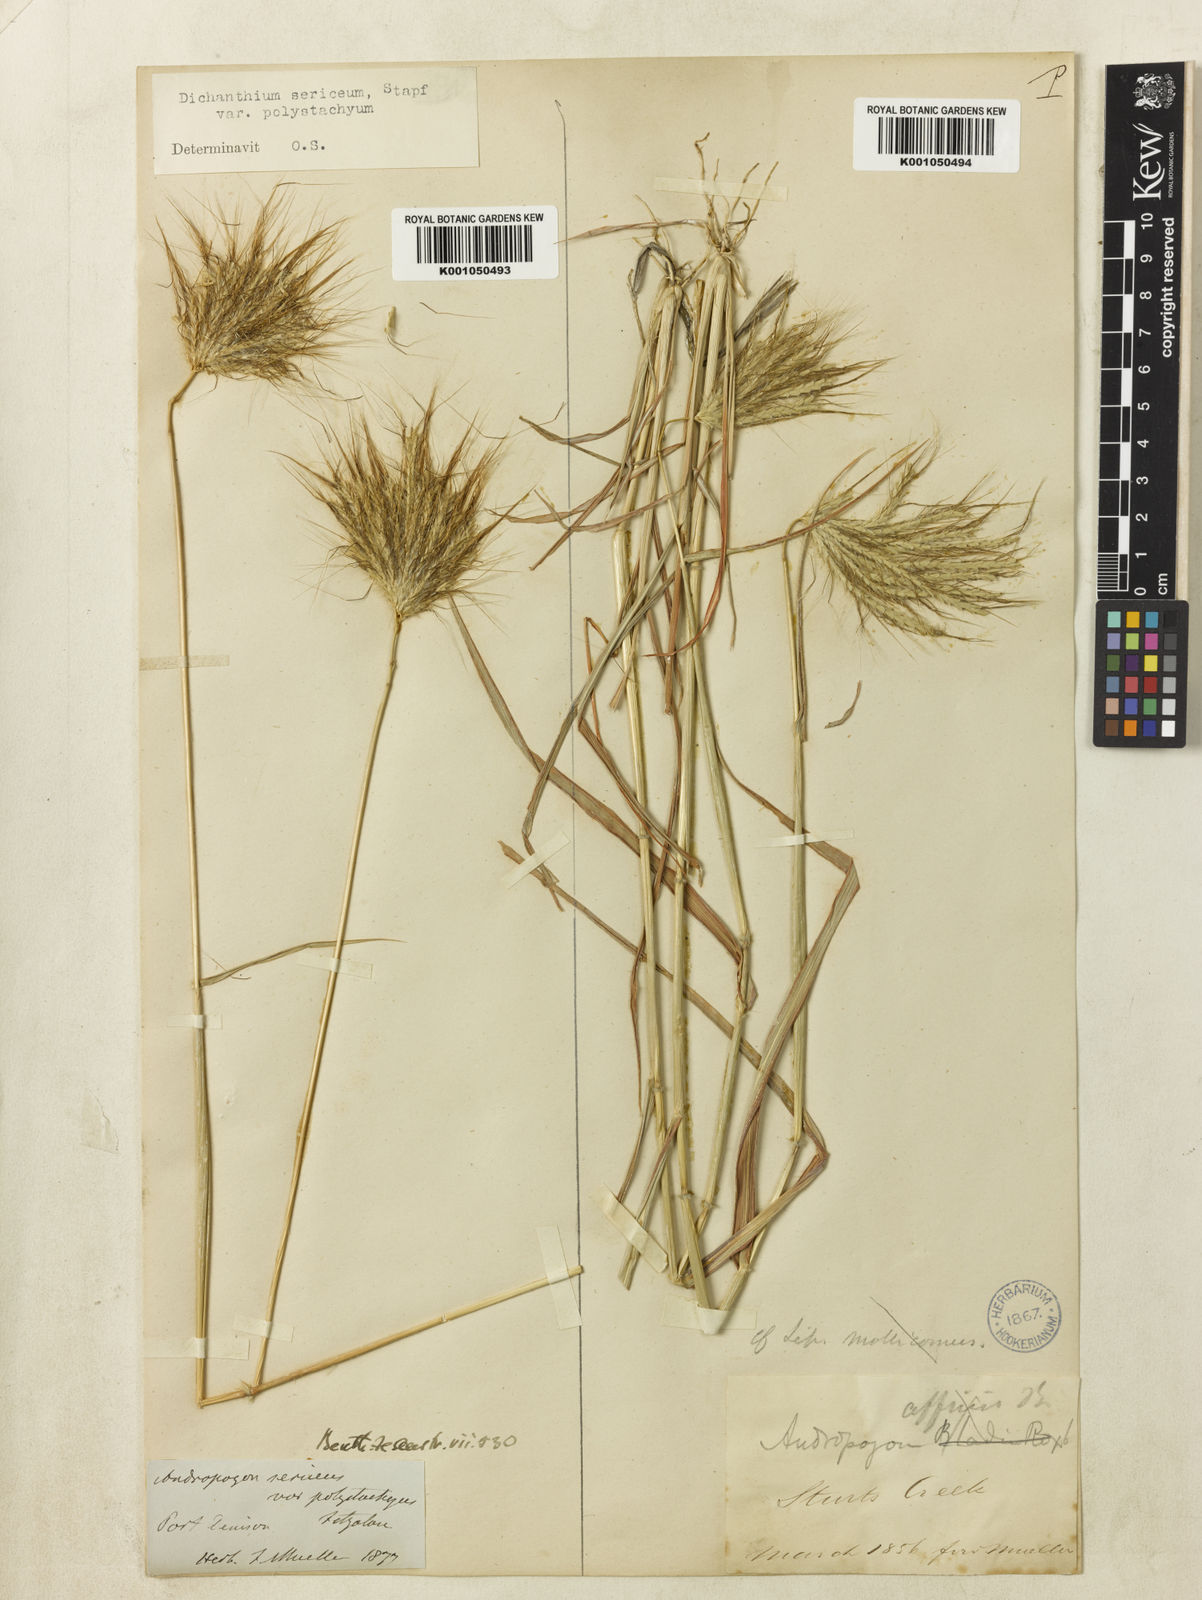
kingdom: Plantae
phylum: Tracheophyta
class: Liliopsida
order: Poales
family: Poaceae
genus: Dichanthium
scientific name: Dichanthium sericeum
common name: Silky bluestem
